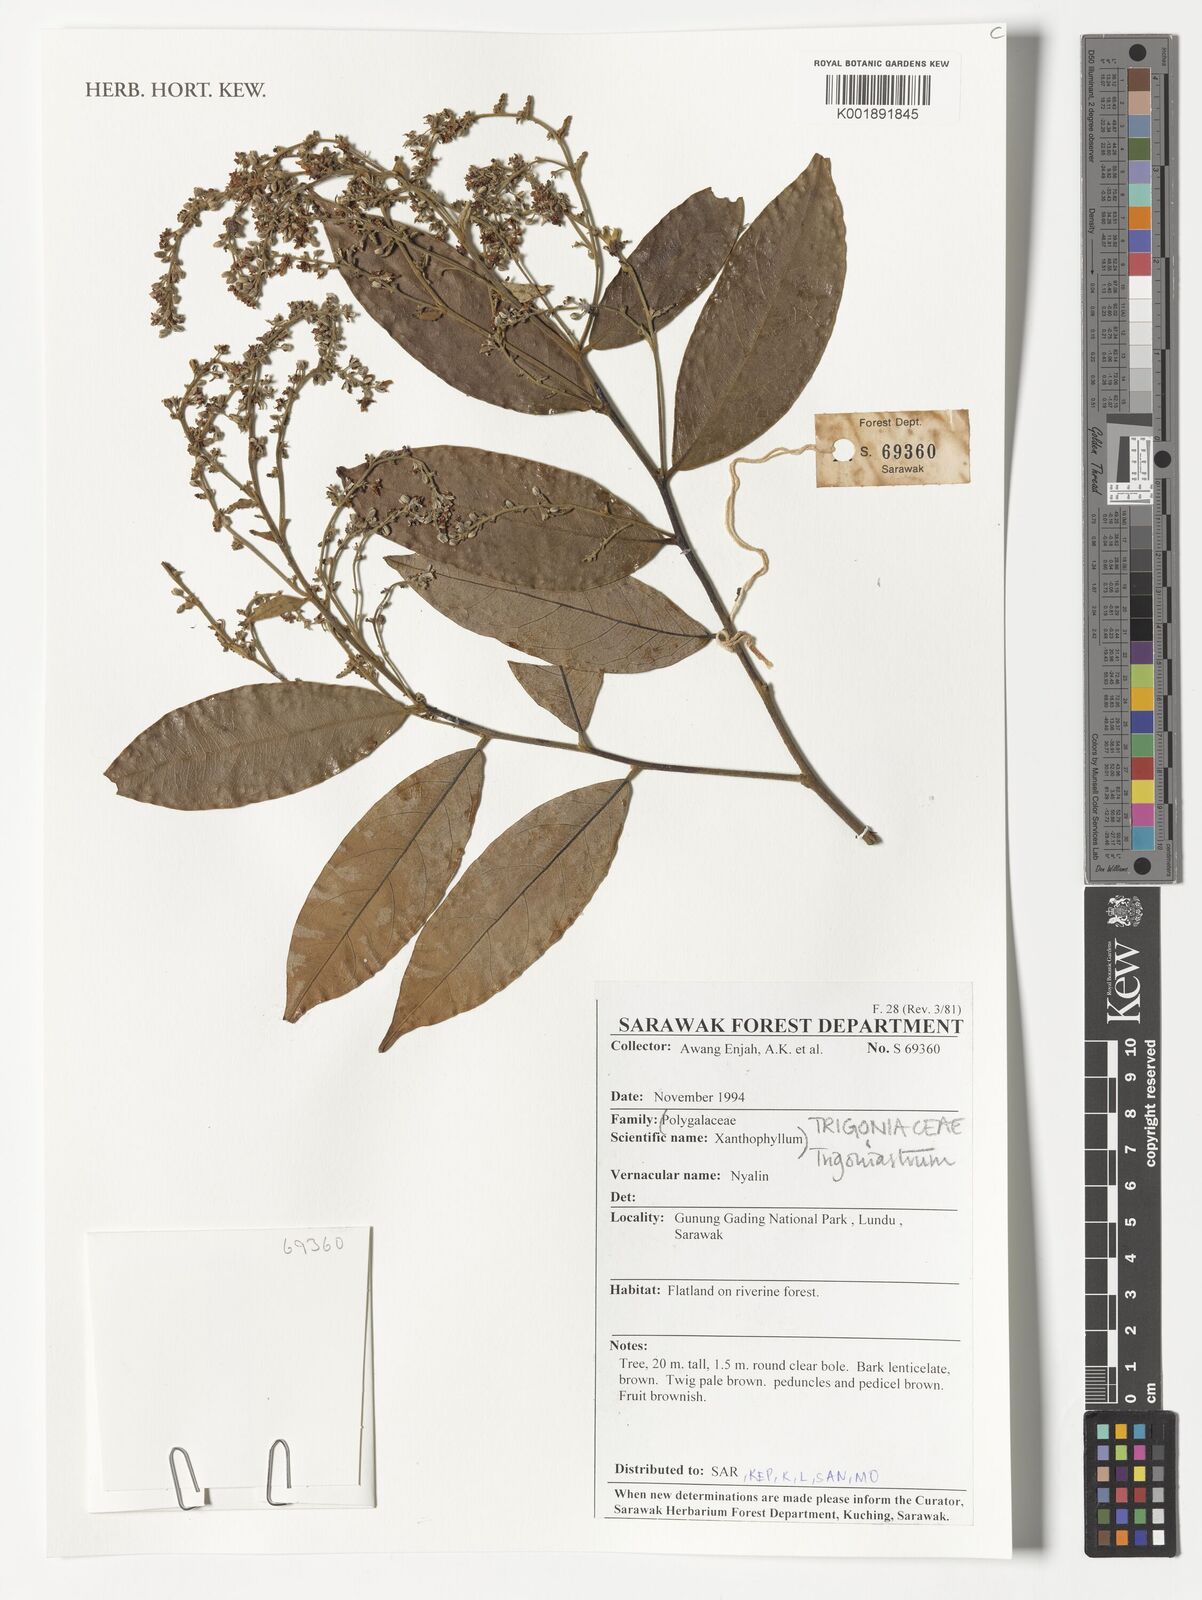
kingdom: Plantae
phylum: Tracheophyta
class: Magnoliopsida
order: Malpighiales
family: Trigoniaceae
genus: Trigoniastrum
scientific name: Trigoniastrum
